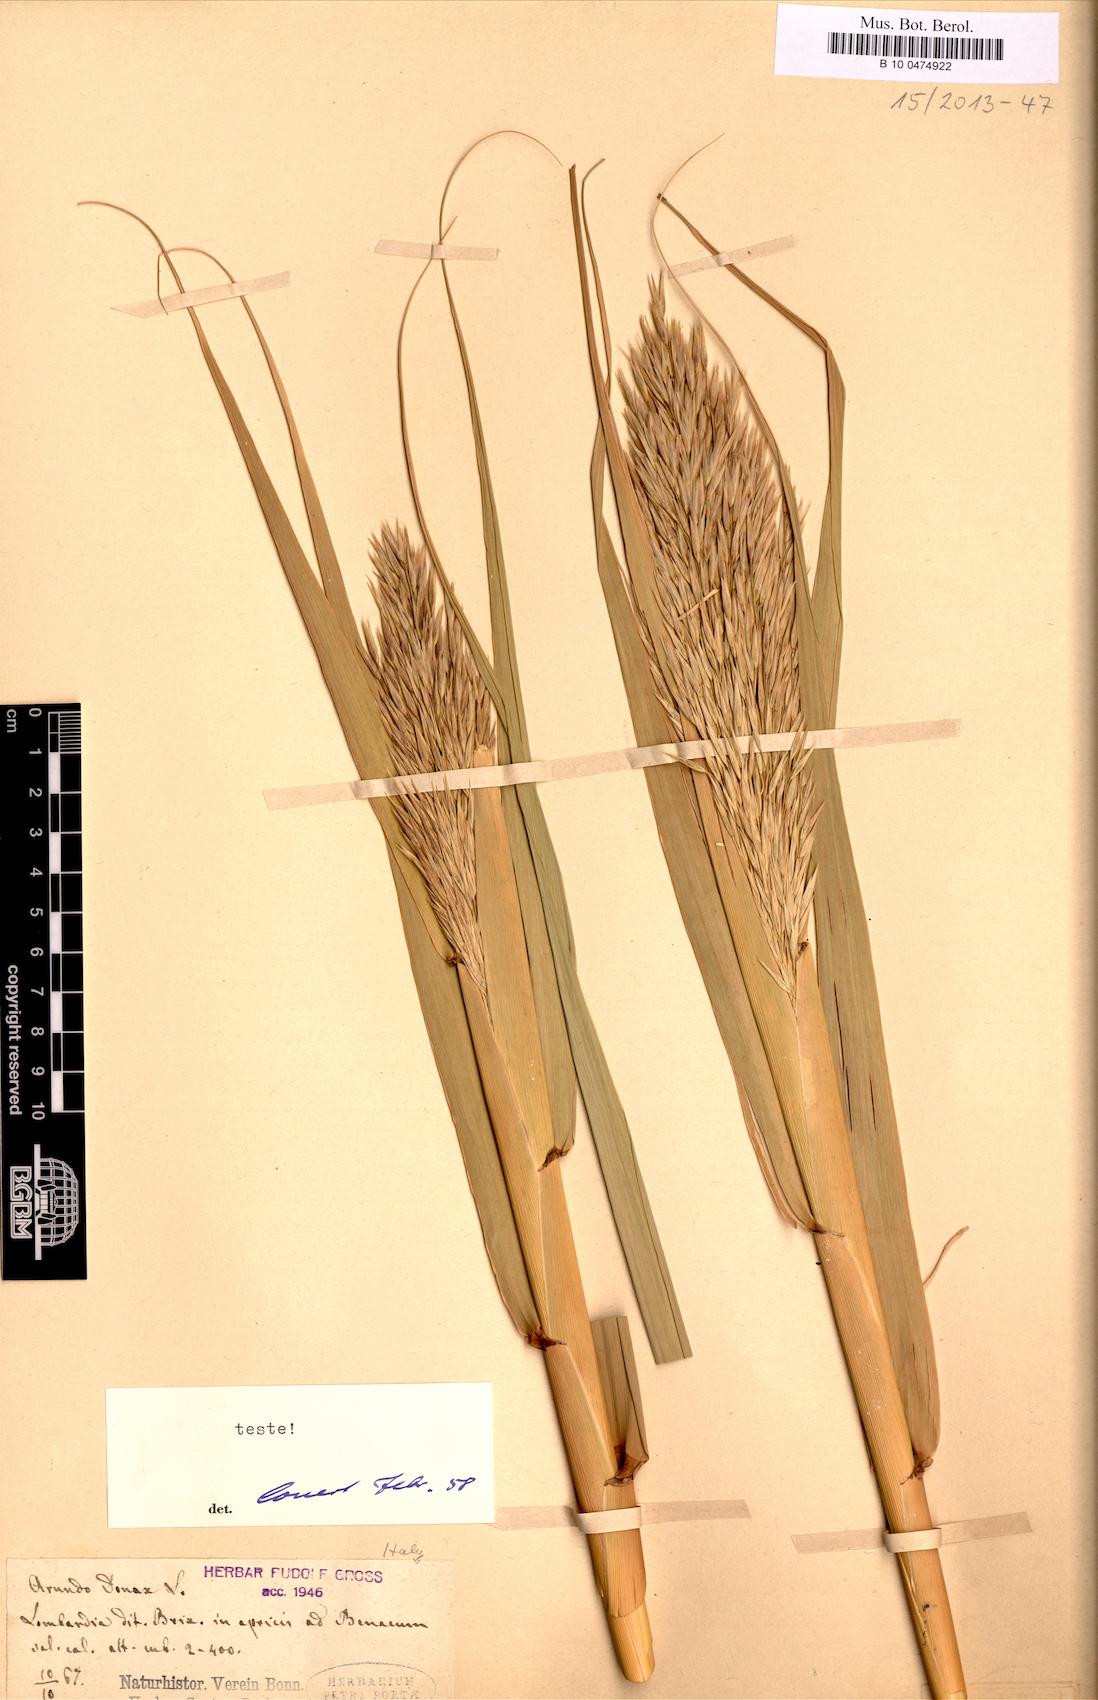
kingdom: Plantae
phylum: Tracheophyta
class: Liliopsida
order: Poales
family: Poaceae
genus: Arundo
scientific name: Arundo donax
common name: Giant reed
